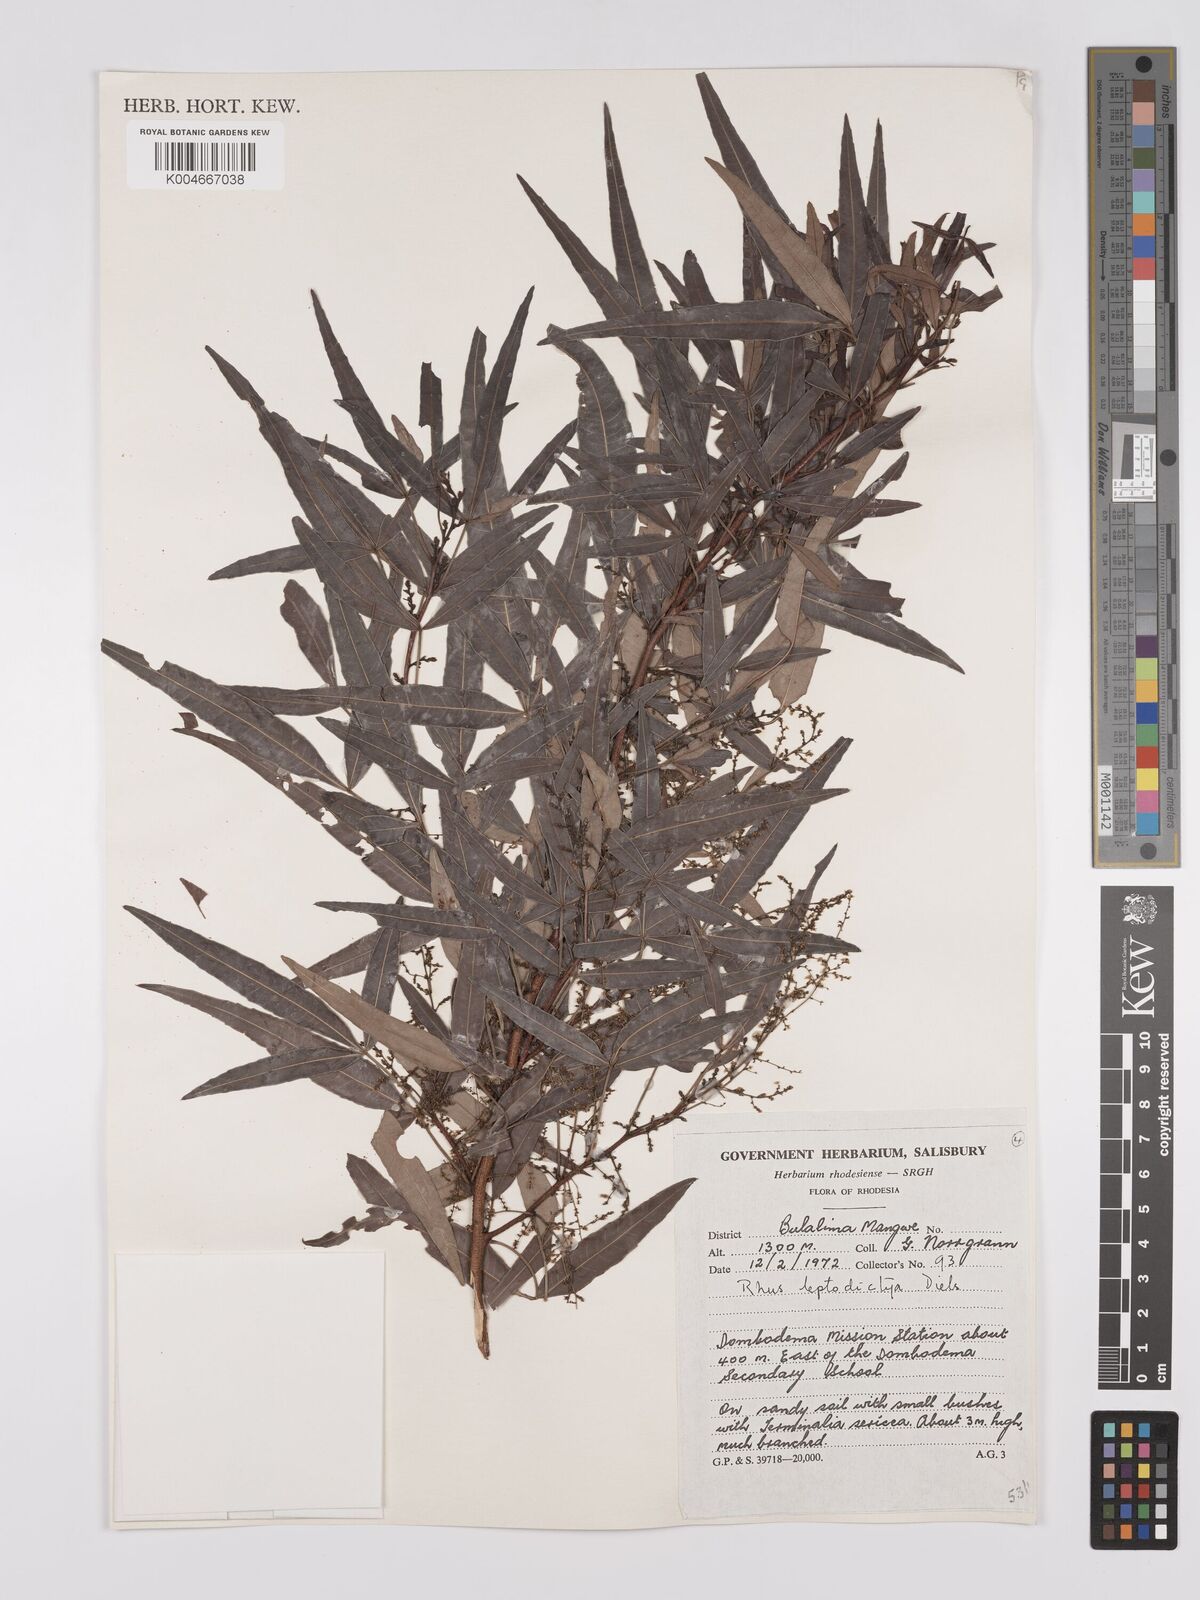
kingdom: Plantae
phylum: Tracheophyta
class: Magnoliopsida
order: Sapindales
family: Anacardiaceae
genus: Searsia
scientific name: Searsia leptodictya
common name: Mountain karee
